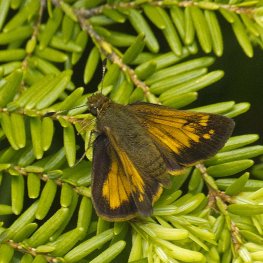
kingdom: Animalia
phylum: Arthropoda
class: Insecta
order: Lepidoptera
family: Hesperiidae
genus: Lon
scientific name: Lon hobomok
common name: Hobomok Skipper
